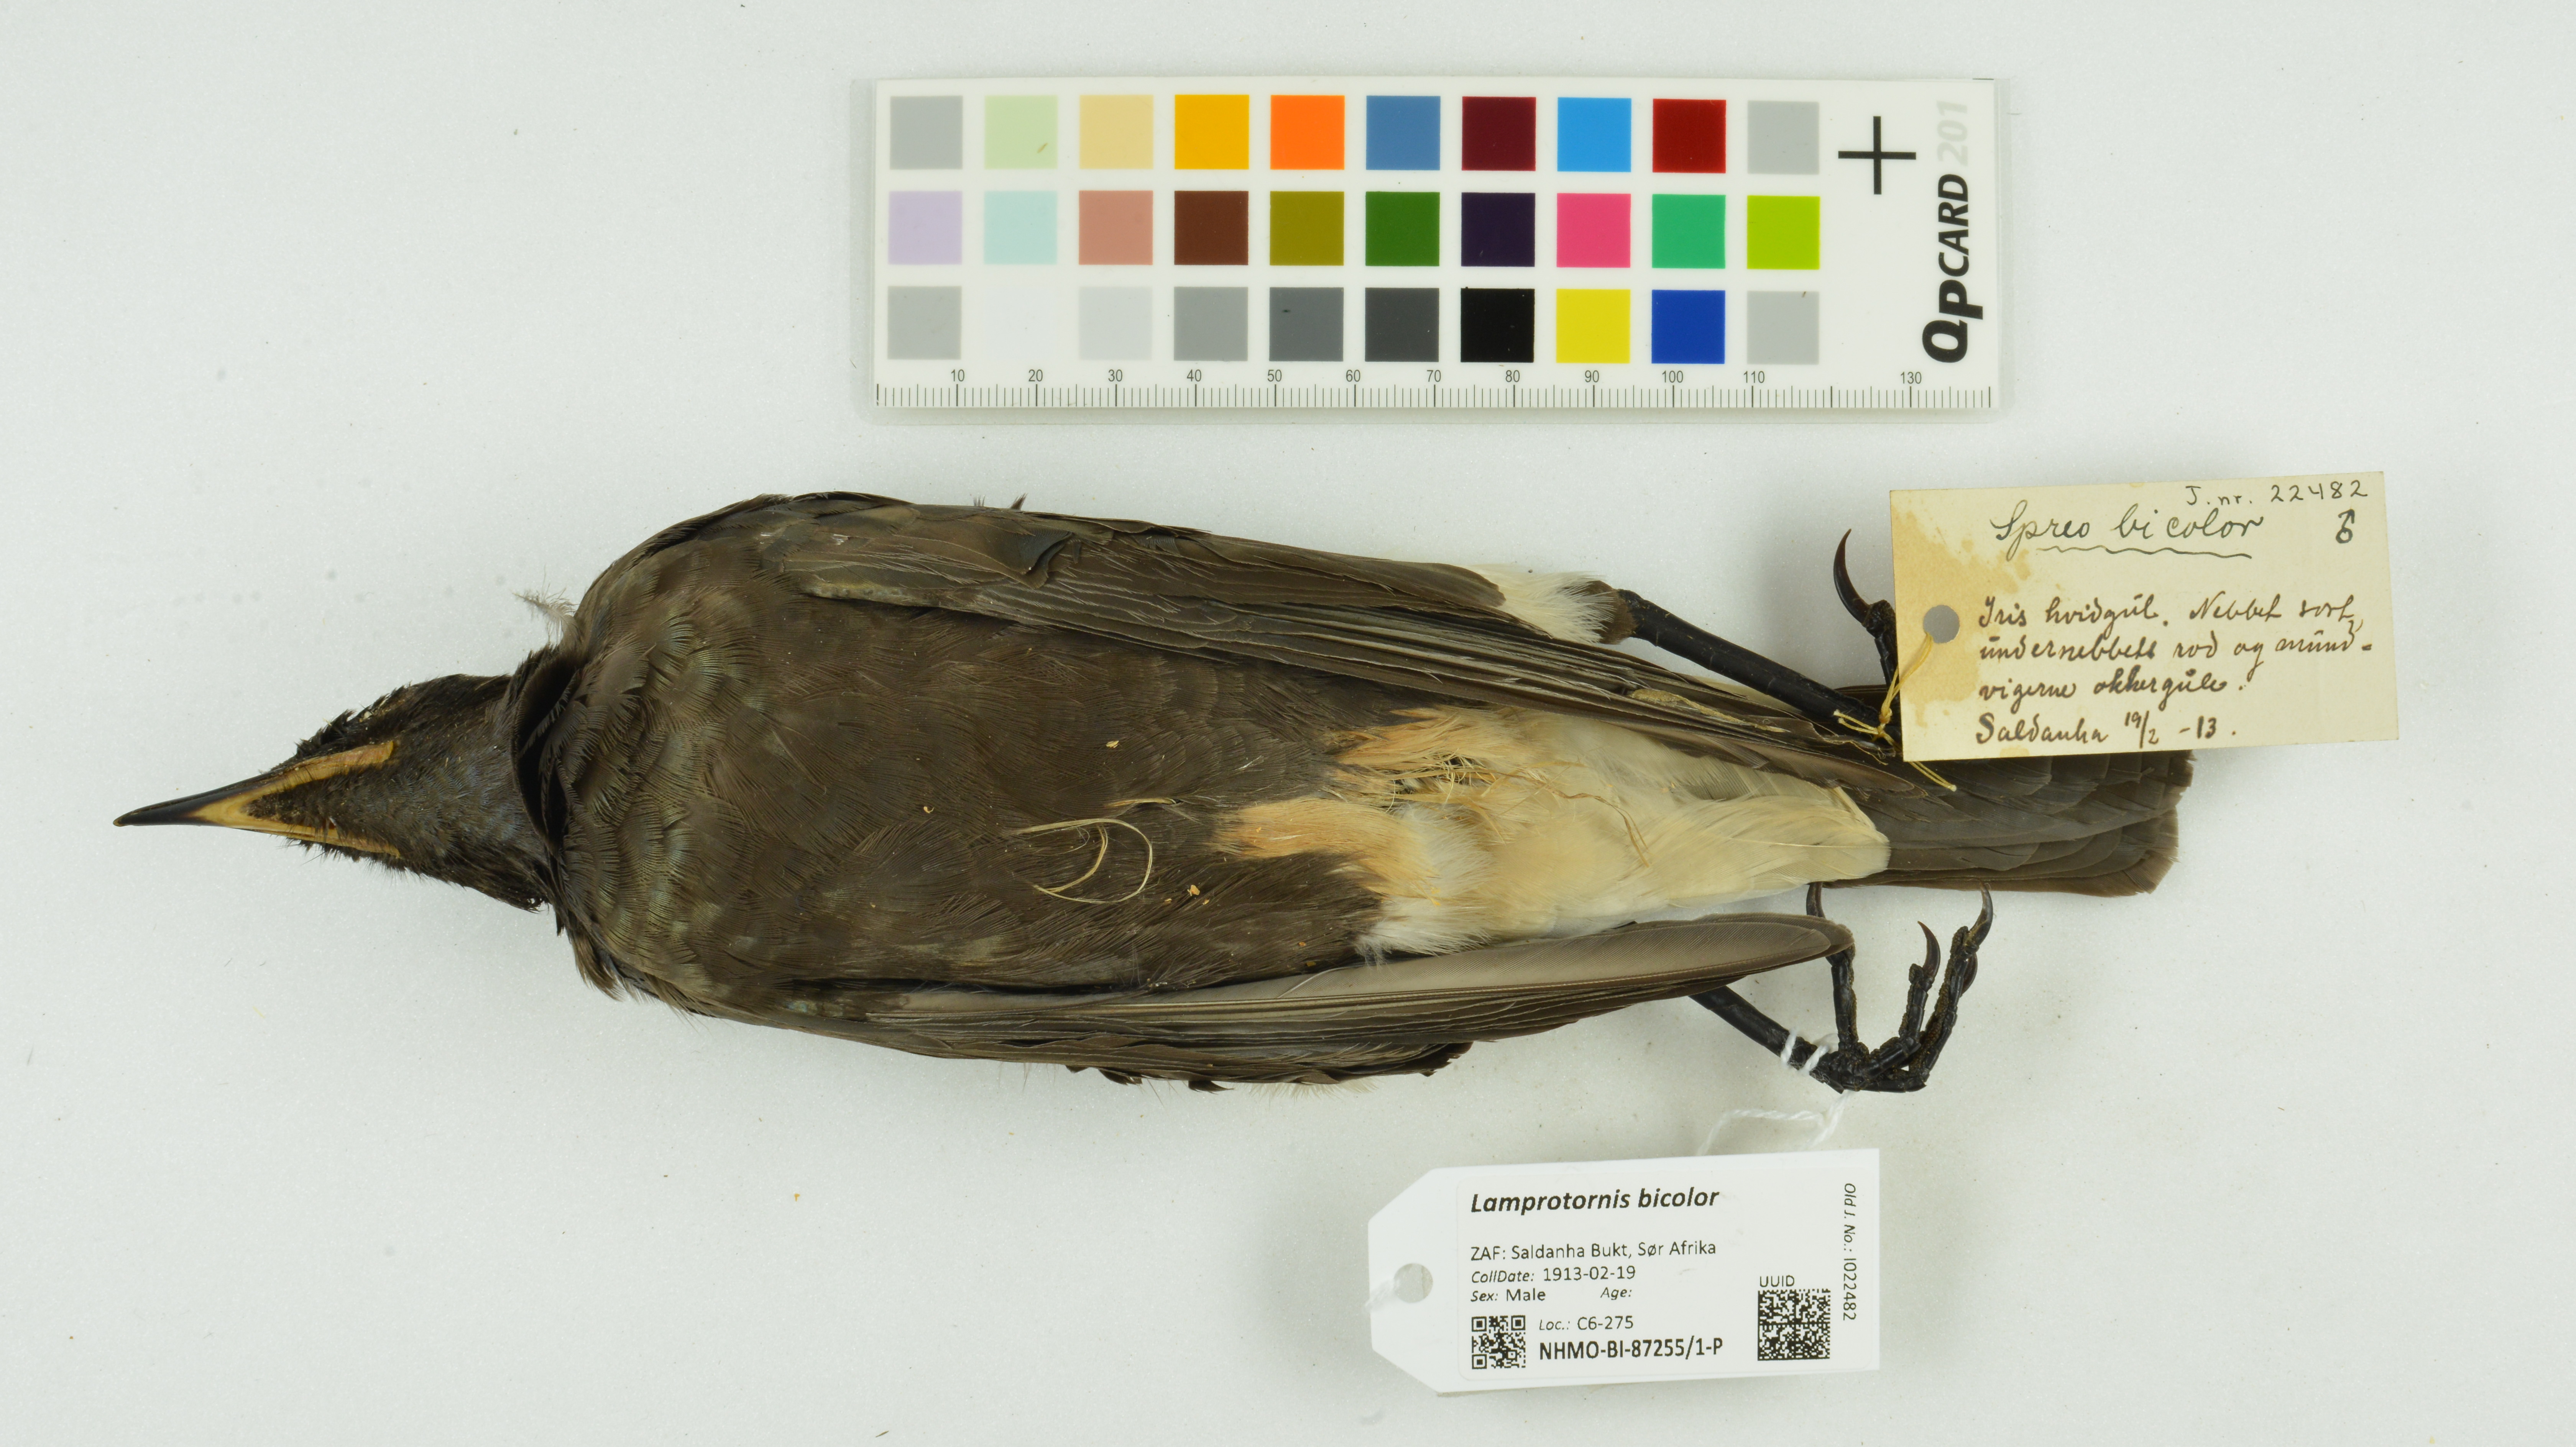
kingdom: Animalia
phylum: Chordata
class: Aves
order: Passeriformes
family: Sturnidae
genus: Lamprotornis
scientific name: Lamprotornis bicolor
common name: Pied starling
